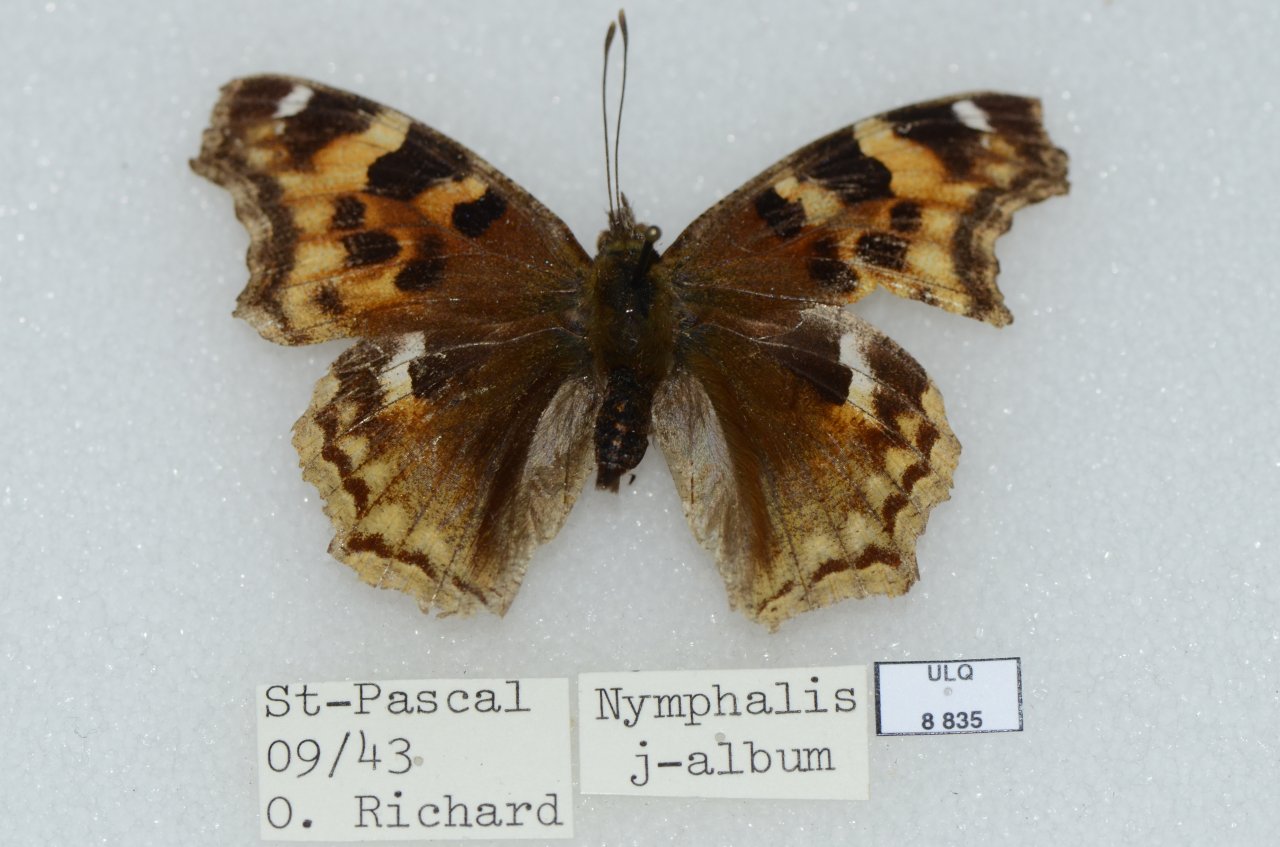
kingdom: Animalia
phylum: Arthropoda
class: Insecta
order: Lepidoptera
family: Nymphalidae
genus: Polygonia
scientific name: Polygonia vaualbum
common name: Compton Tortoiseshell
